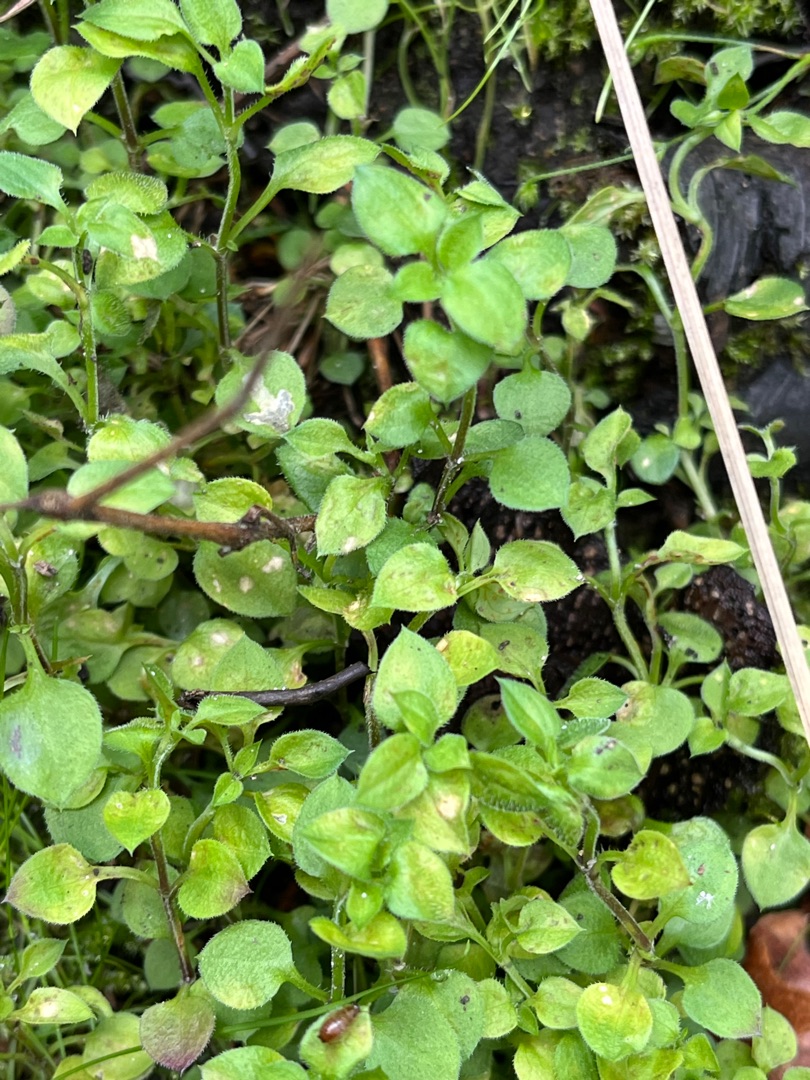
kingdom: Plantae
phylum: Tracheophyta
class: Magnoliopsida
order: Caryophyllales
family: Caryophyllaceae
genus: Moehringia
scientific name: Moehringia trinervia
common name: Skovarve
